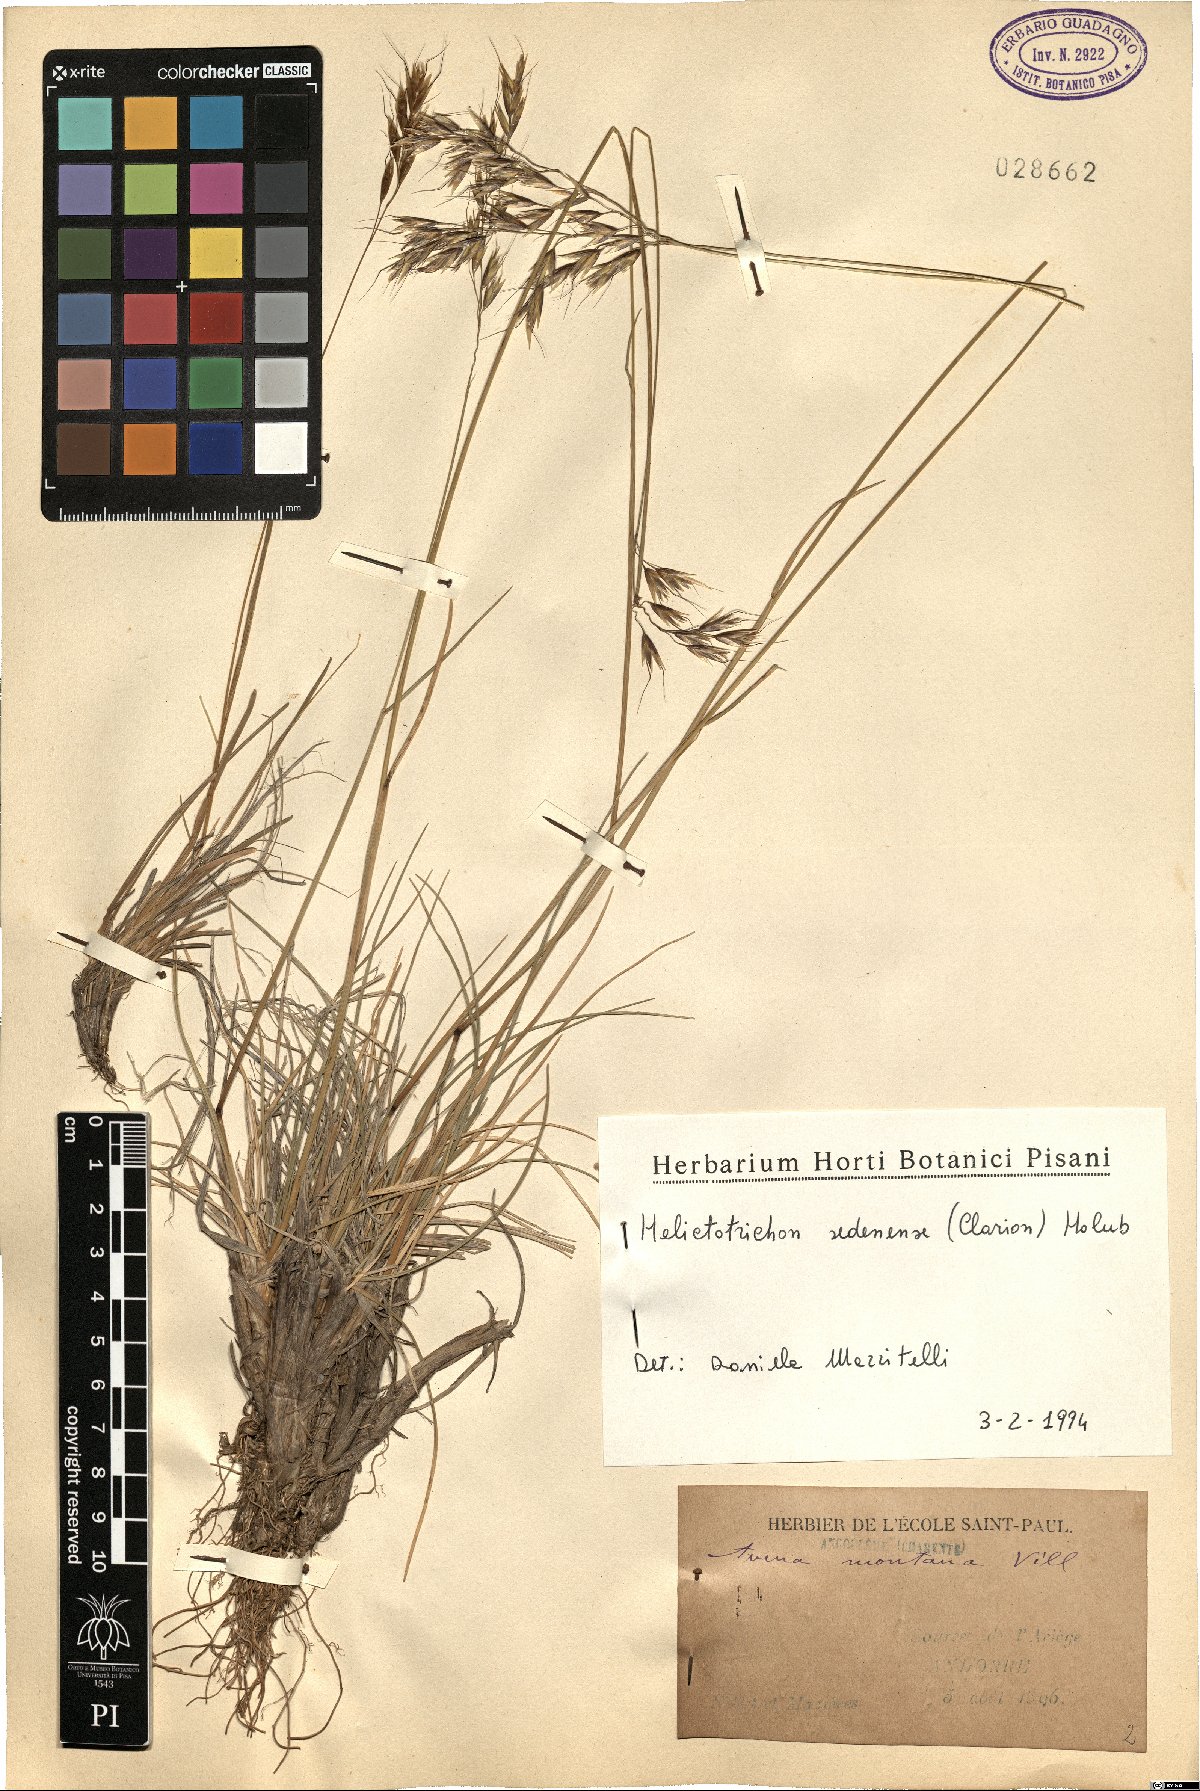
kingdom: Plantae
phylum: Tracheophyta
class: Liliopsida
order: Poales
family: Poaceae
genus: Helictotrichon
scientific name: Helictotrichon sedenense
